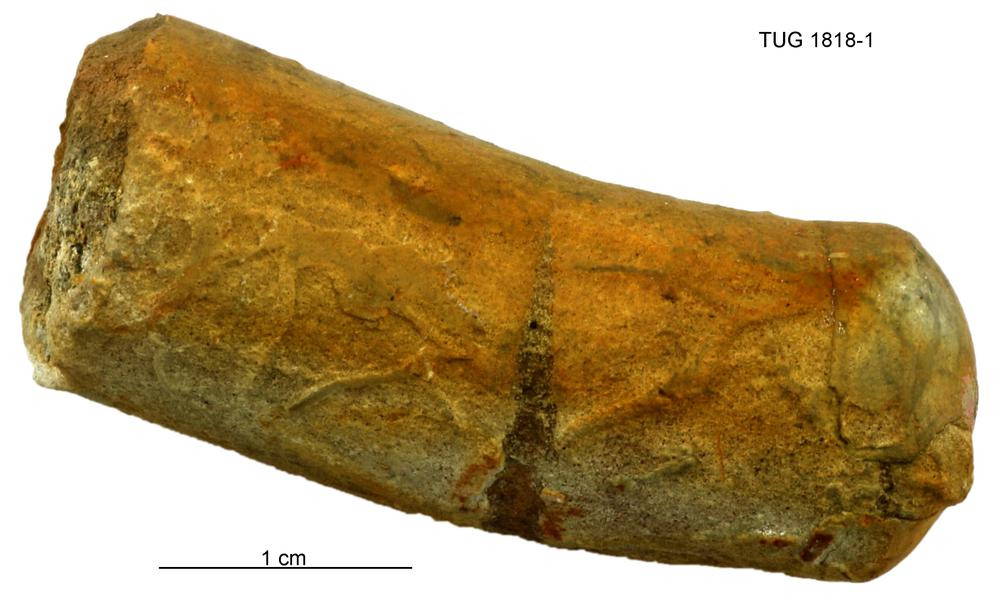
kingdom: Animalia
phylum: Mollusca
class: Cephalopoda
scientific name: Cephalopoda
